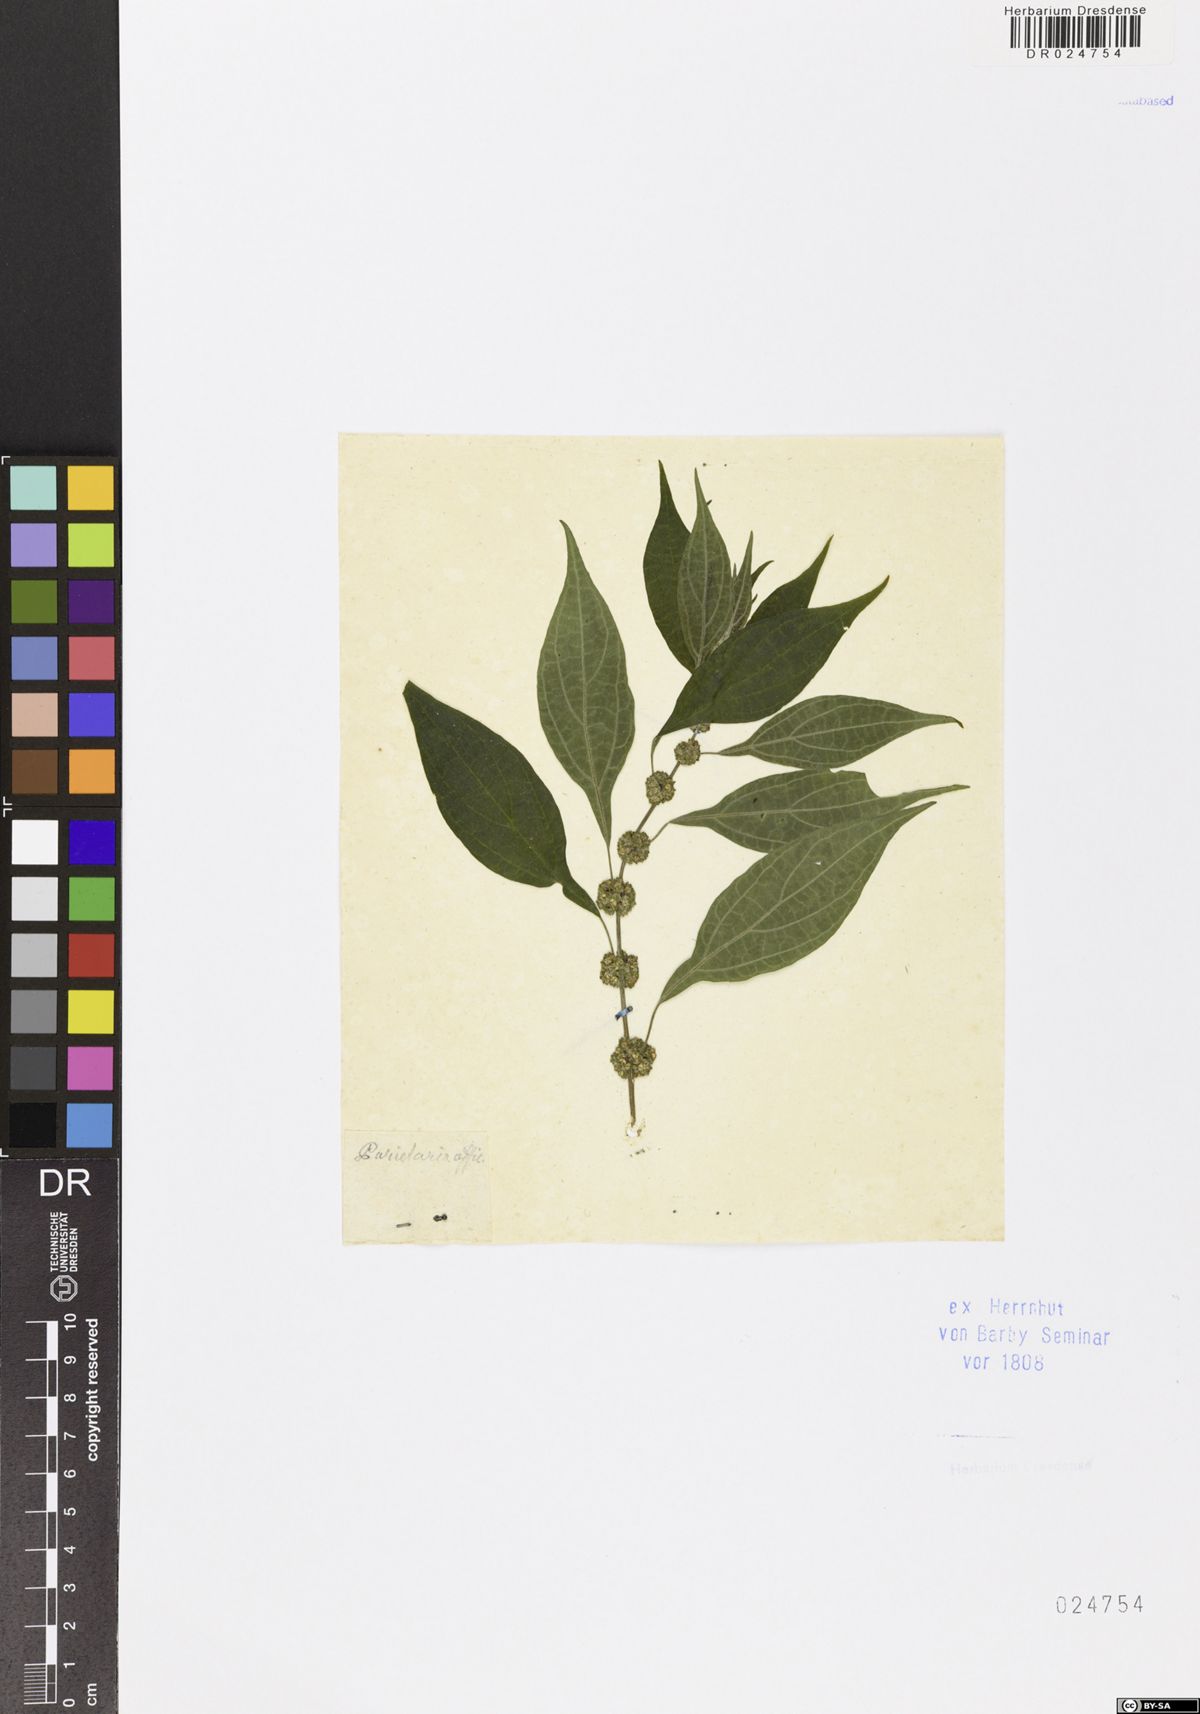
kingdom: Plantae
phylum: Tracheophyta
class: Magnoliopsida
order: Rosales
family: Urticaceae
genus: Parietaria
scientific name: Parietaria officinalis
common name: Eastern pellitory-of-the-wall
